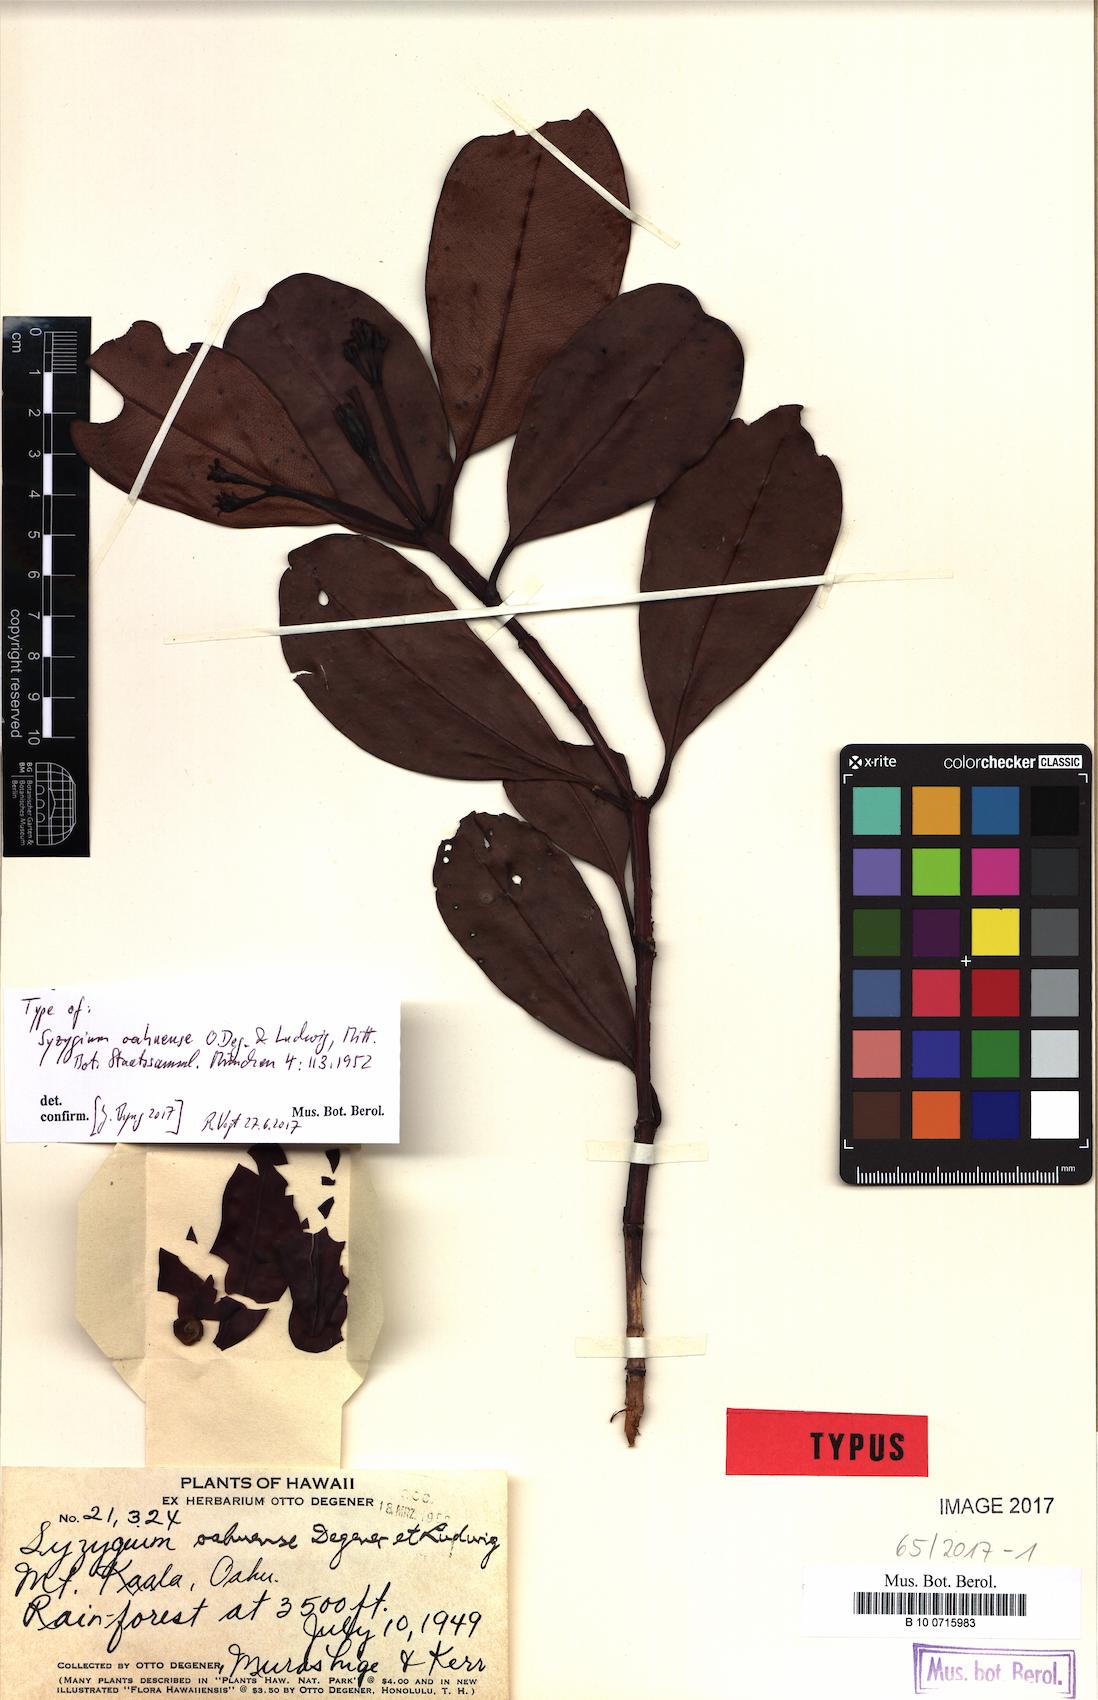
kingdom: Plantae
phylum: Tracheophyta
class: Magnoliopsida
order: Myrtales
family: Myrtaceae
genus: Syzygium
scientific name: Syzygium sandwicense
